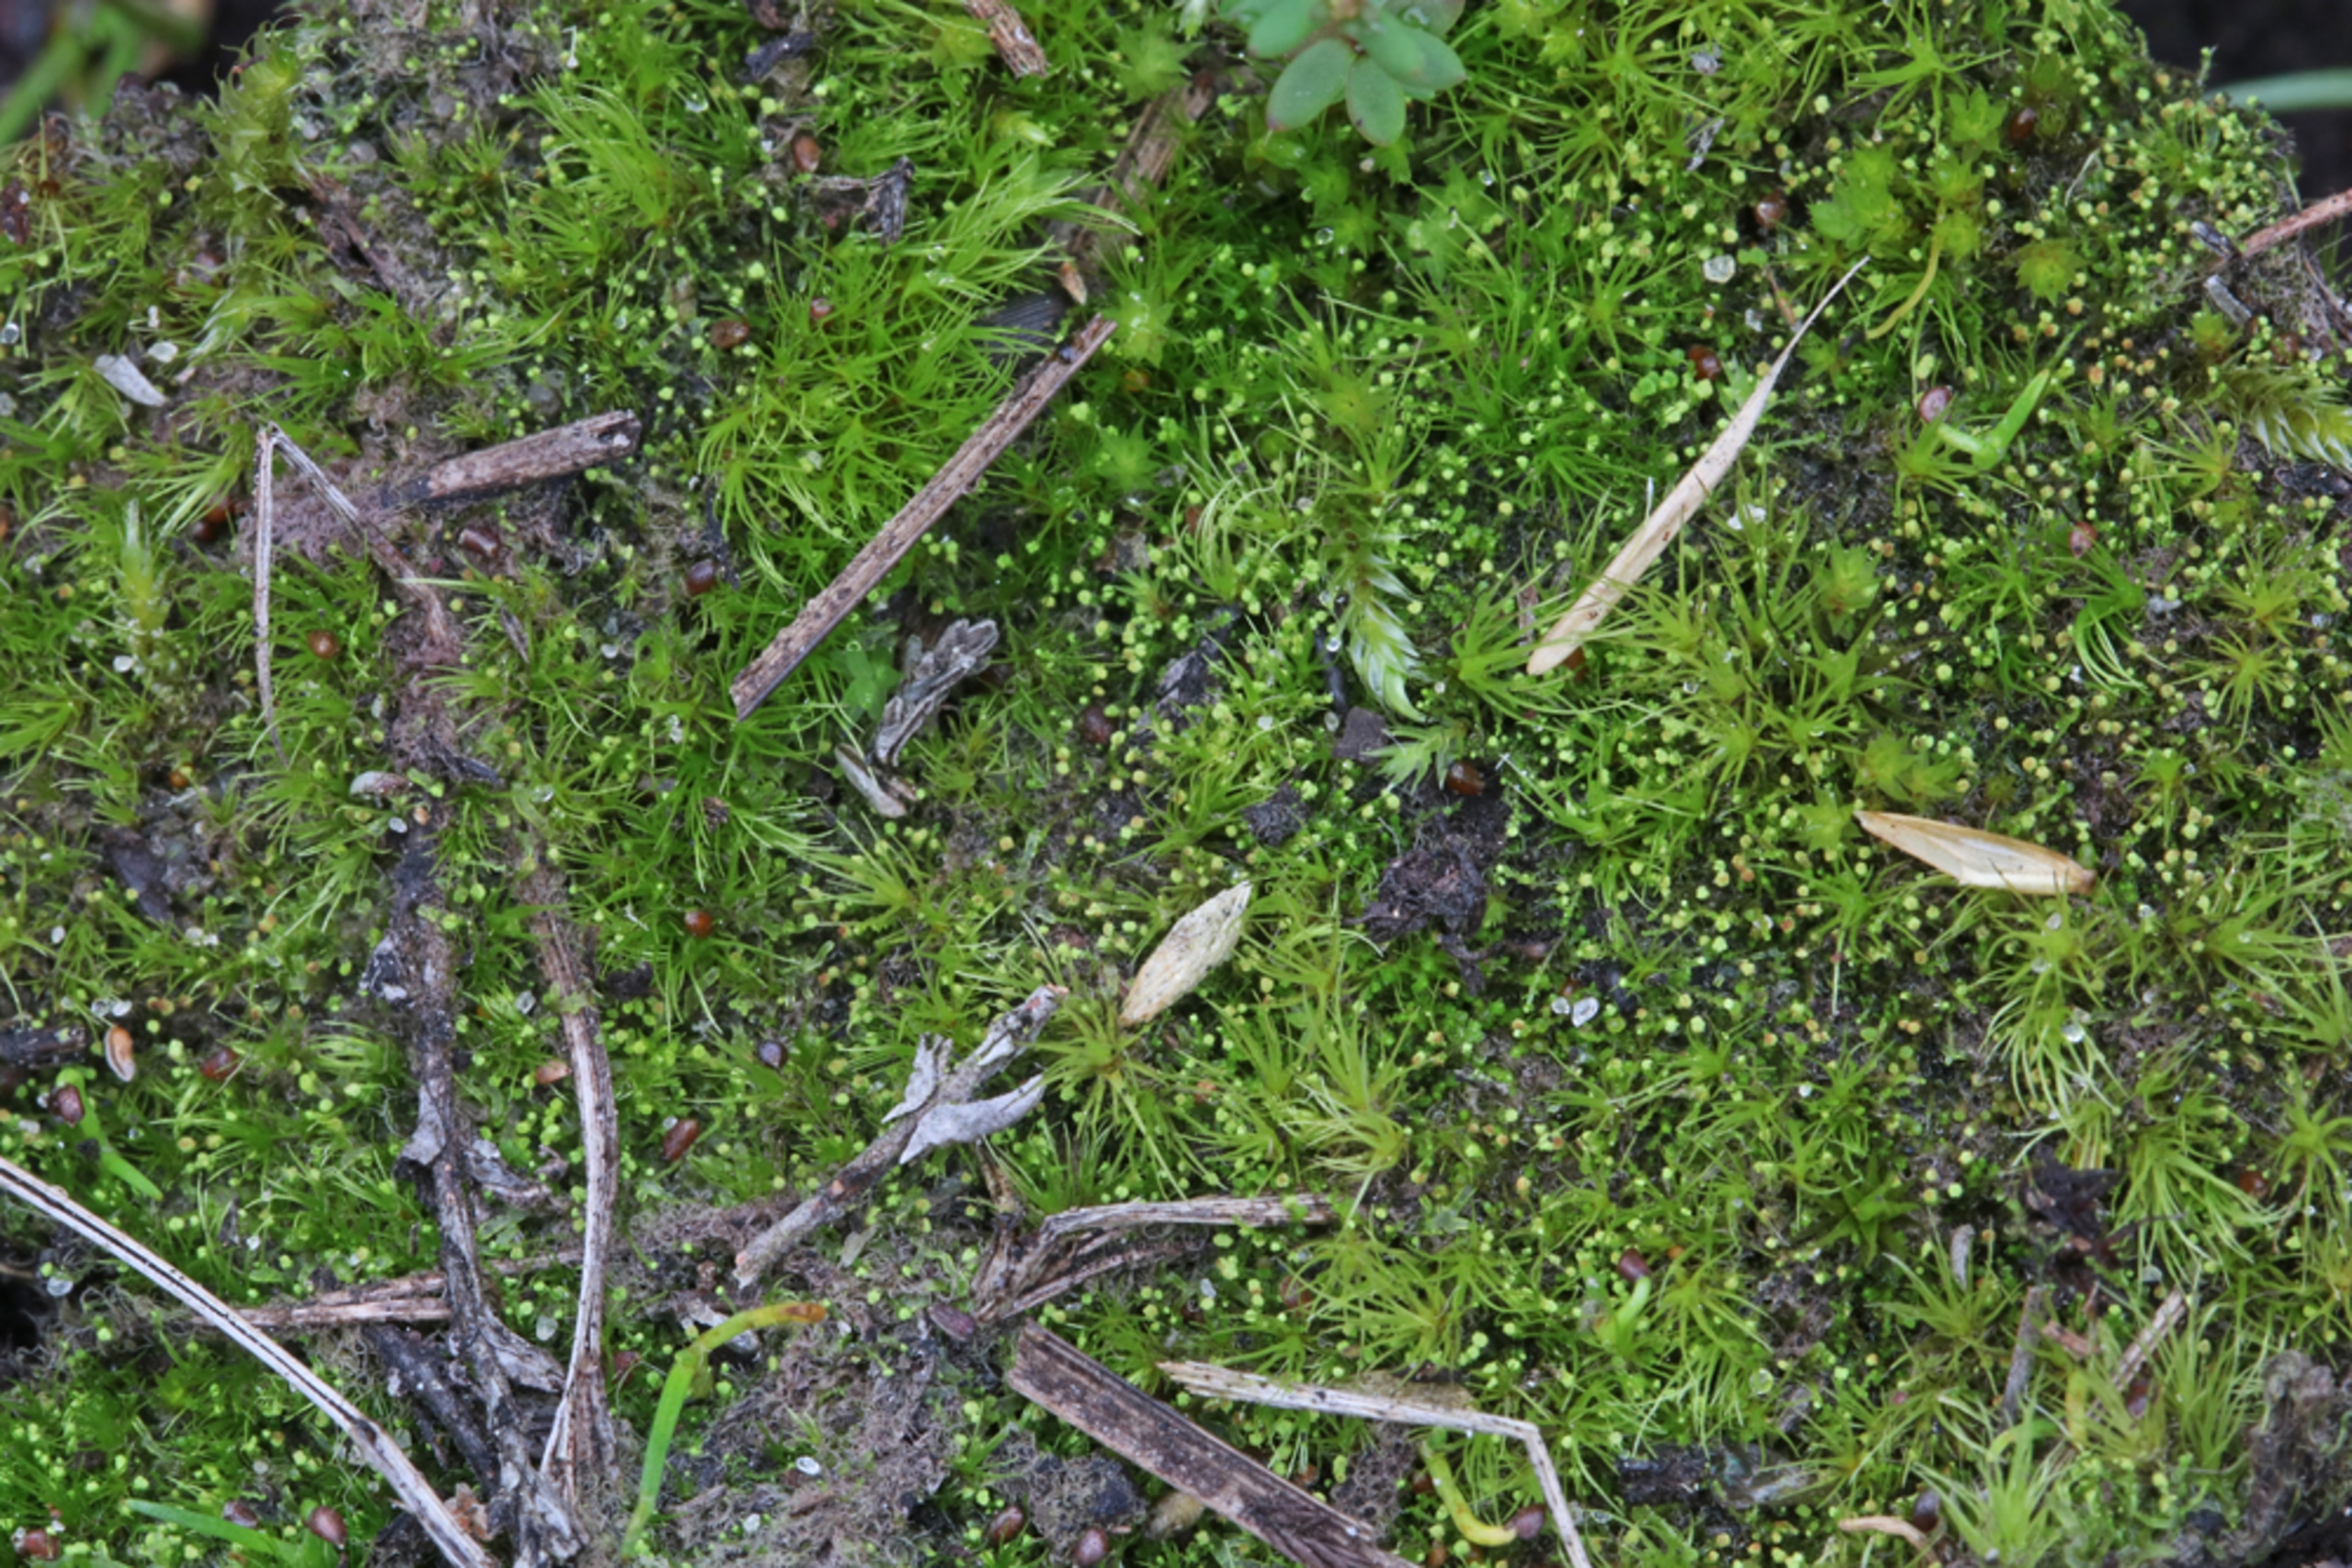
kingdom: Plantae
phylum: Marchantiophyta
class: Jungermanniopsida
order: Jungermanniales
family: Cephaloziellaceae
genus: Cephaloziella
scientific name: Cephaloziella divaricata
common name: Mørk dværgtråd
